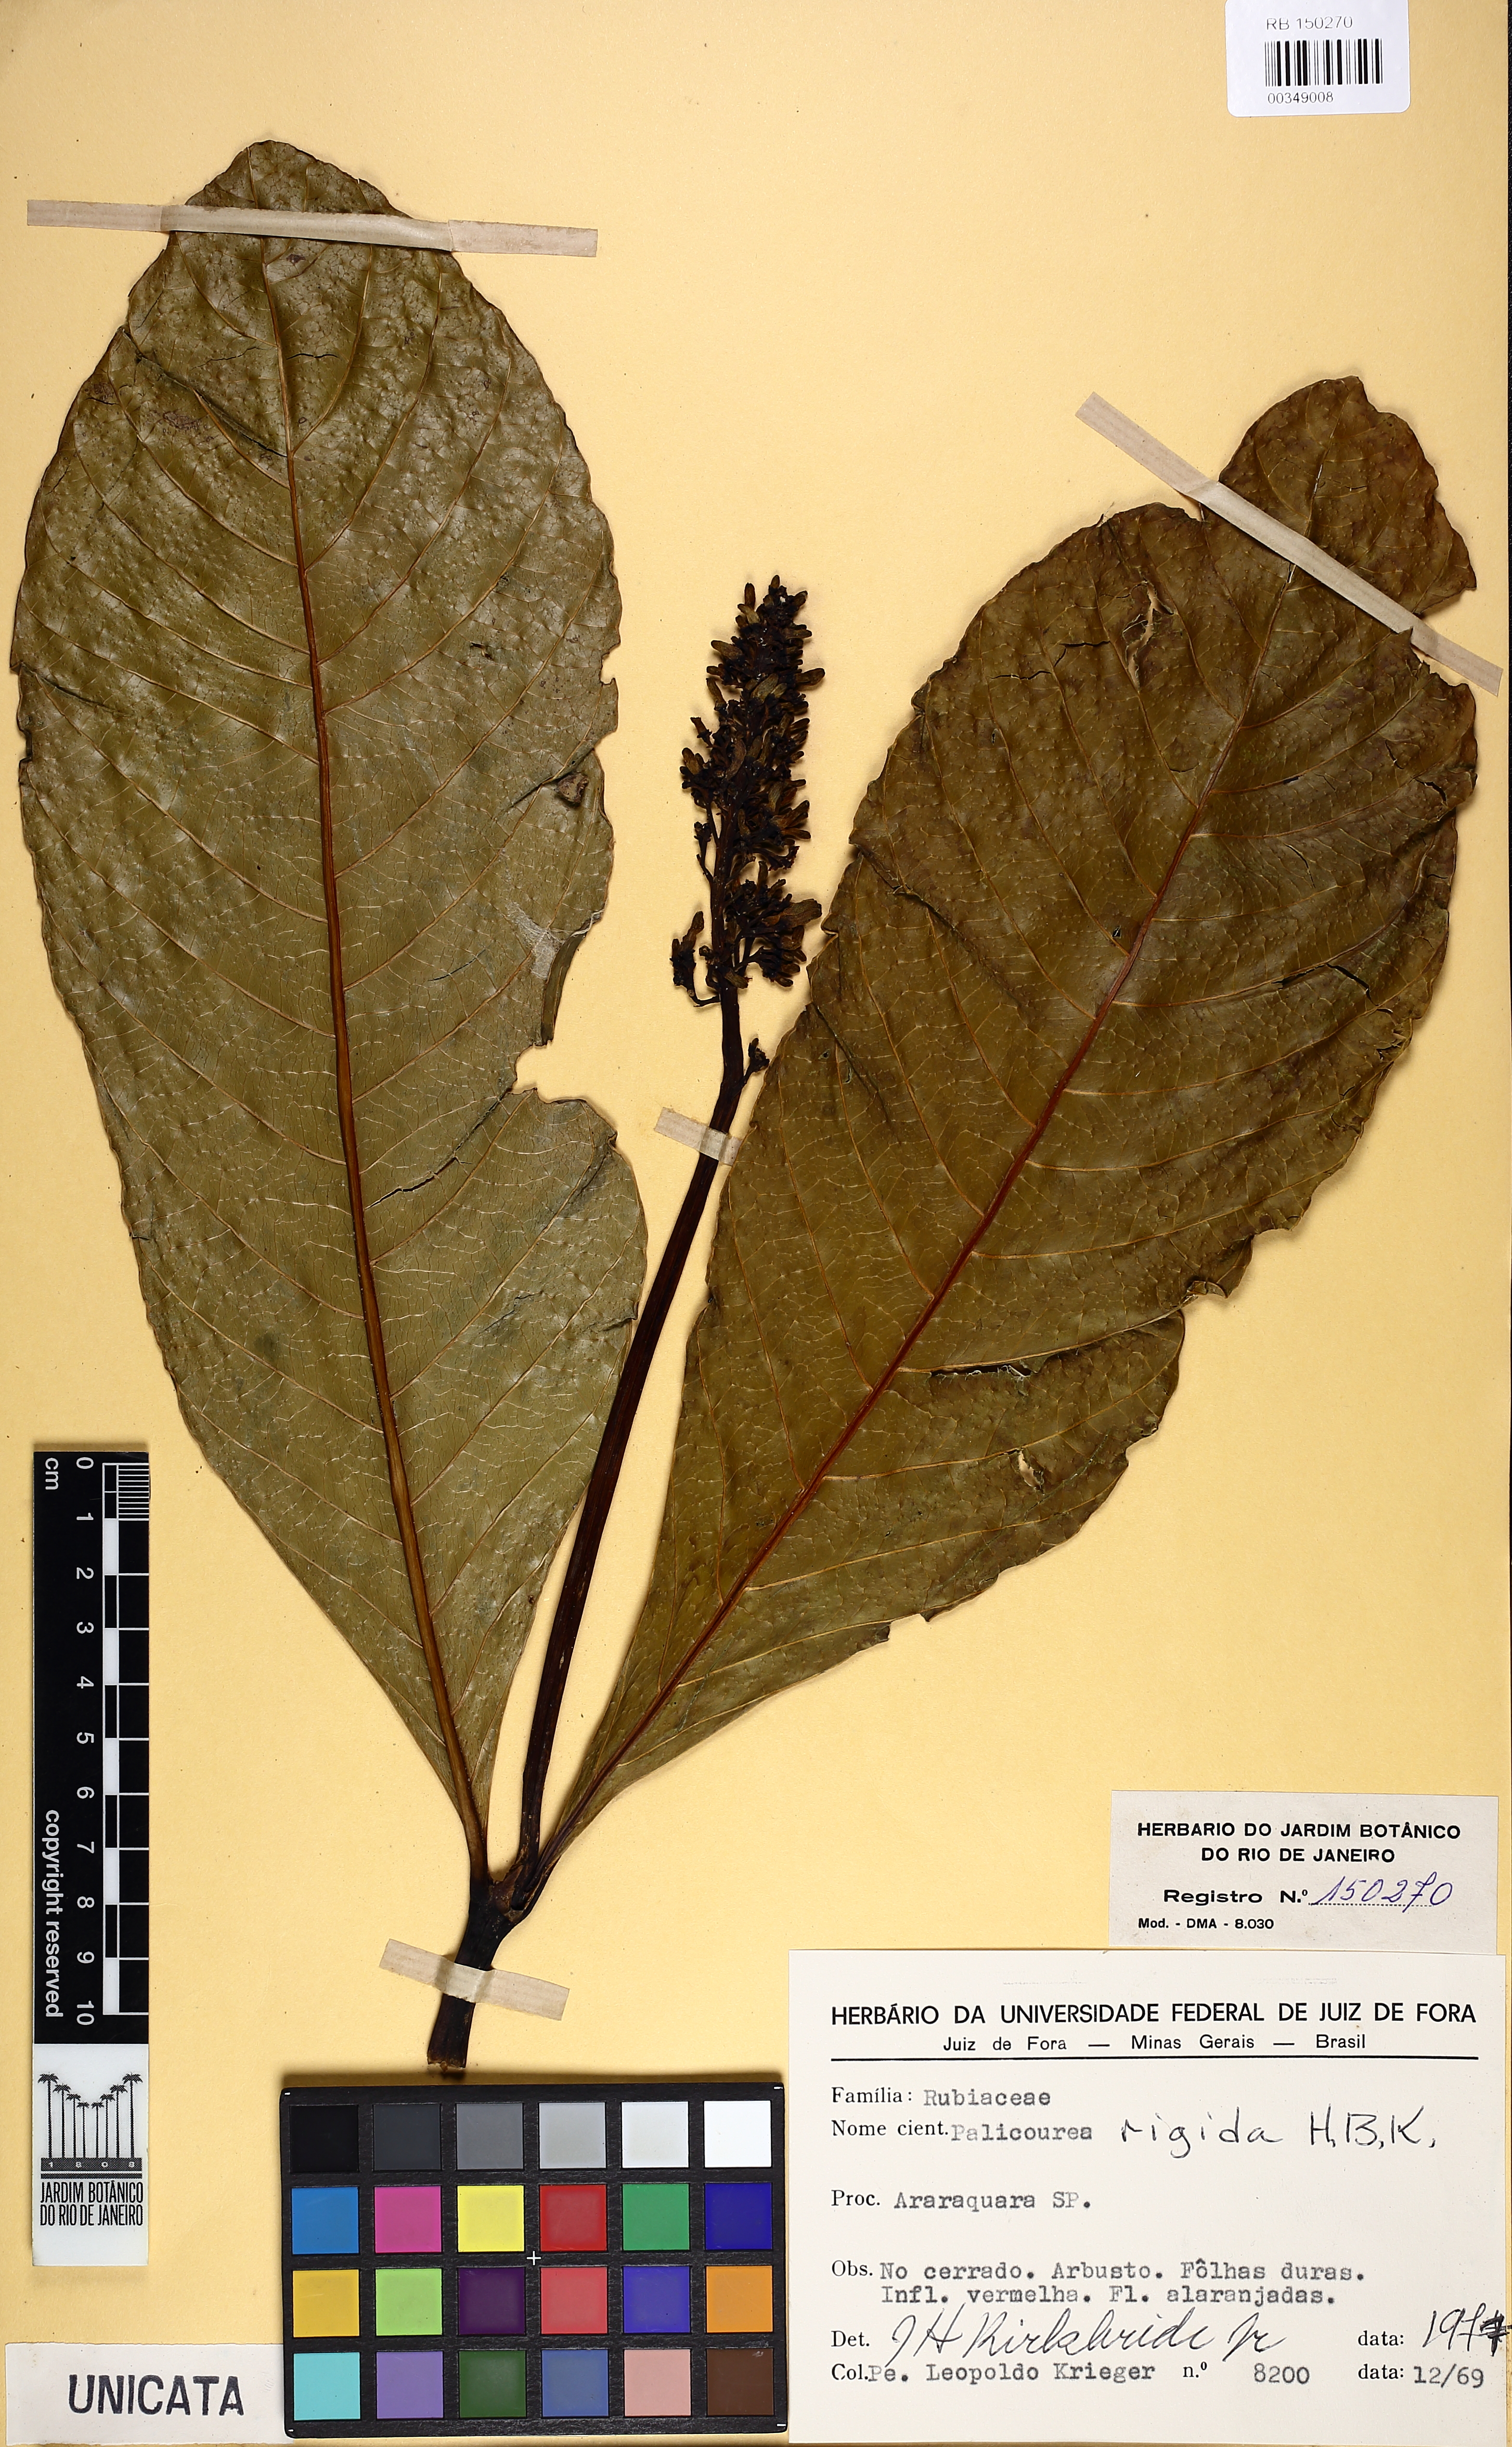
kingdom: Plantae
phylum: Tracheophyta
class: Magnoliopsida
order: Gentianales
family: Rubiaceae
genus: Palicourea
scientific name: Palicourea rigida
